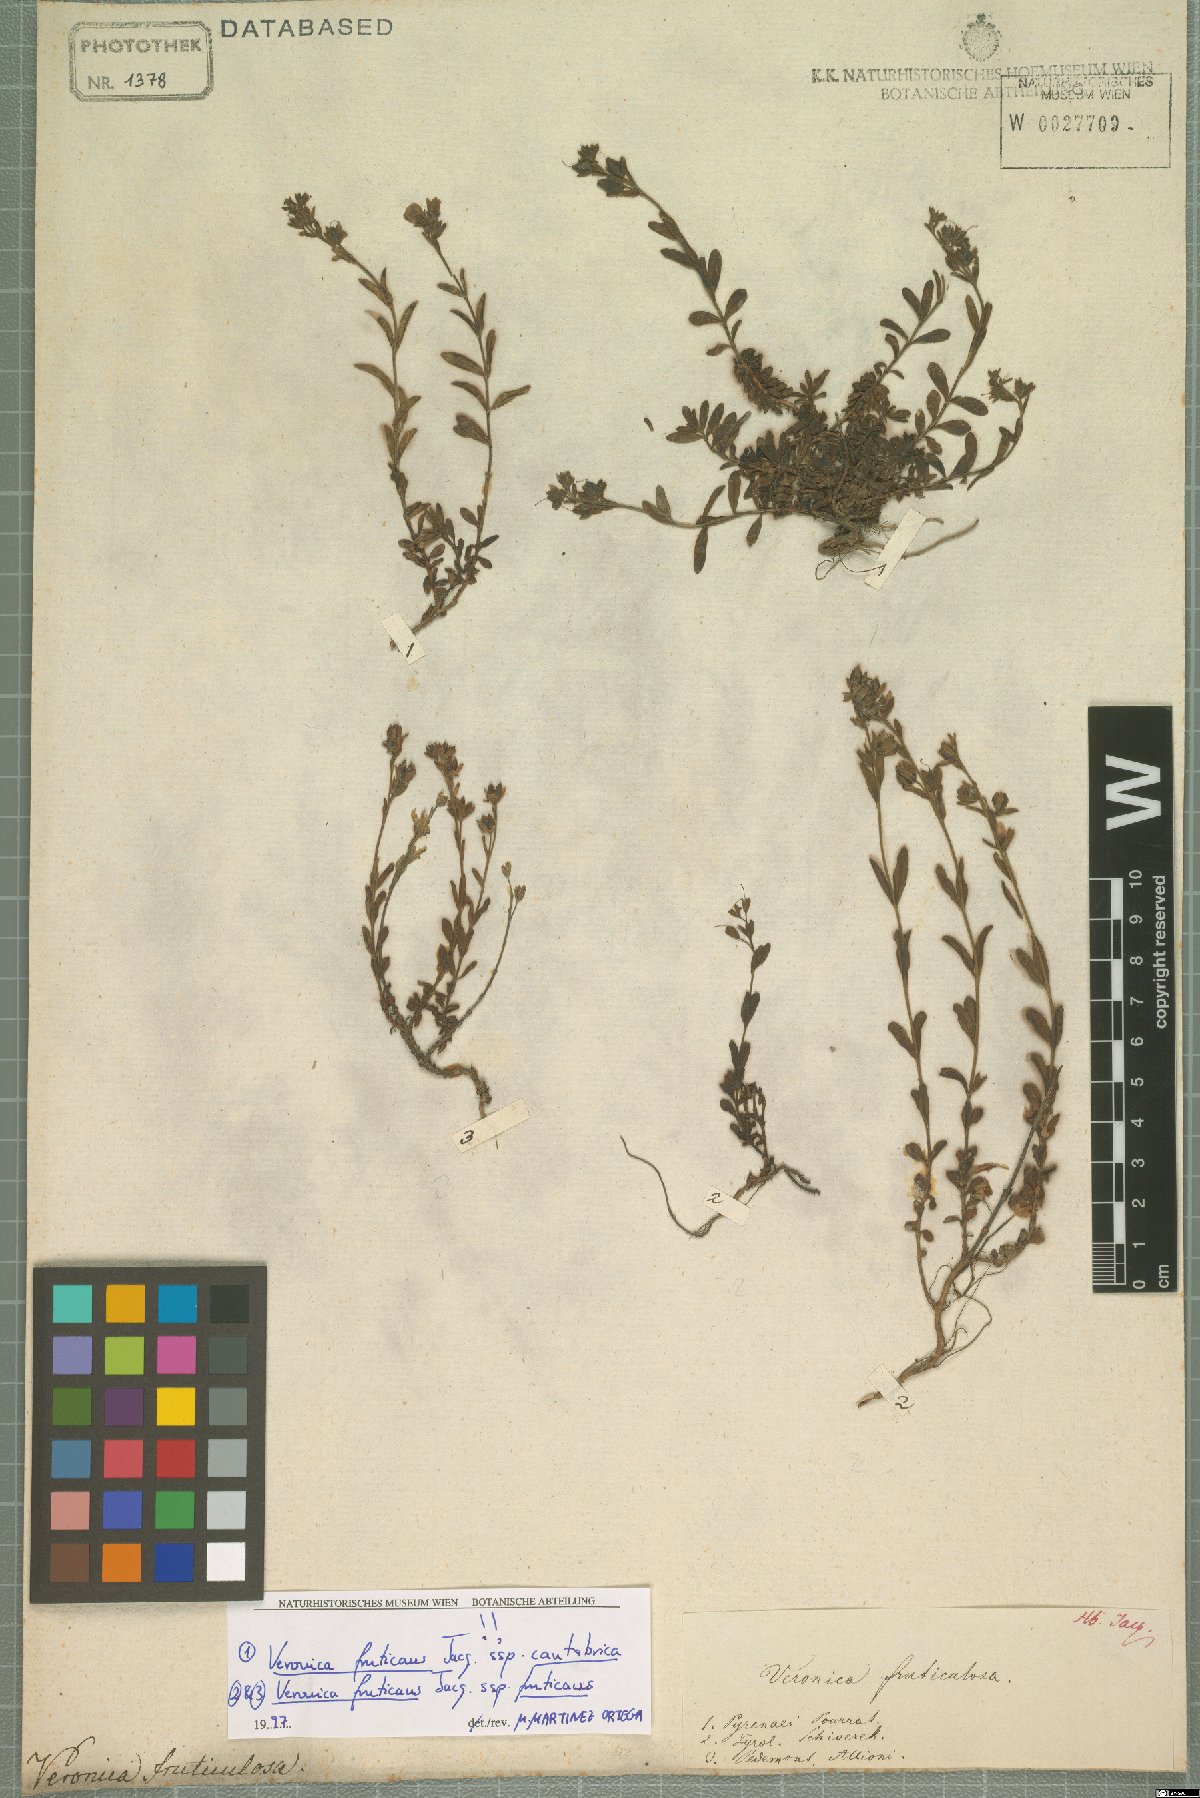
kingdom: Plantae
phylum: Tracheophyta
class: Magnoliopsida
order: Lamiales
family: Plantaginaceae
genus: Veronica
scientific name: Veronica fruticans
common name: Rock speedwell
